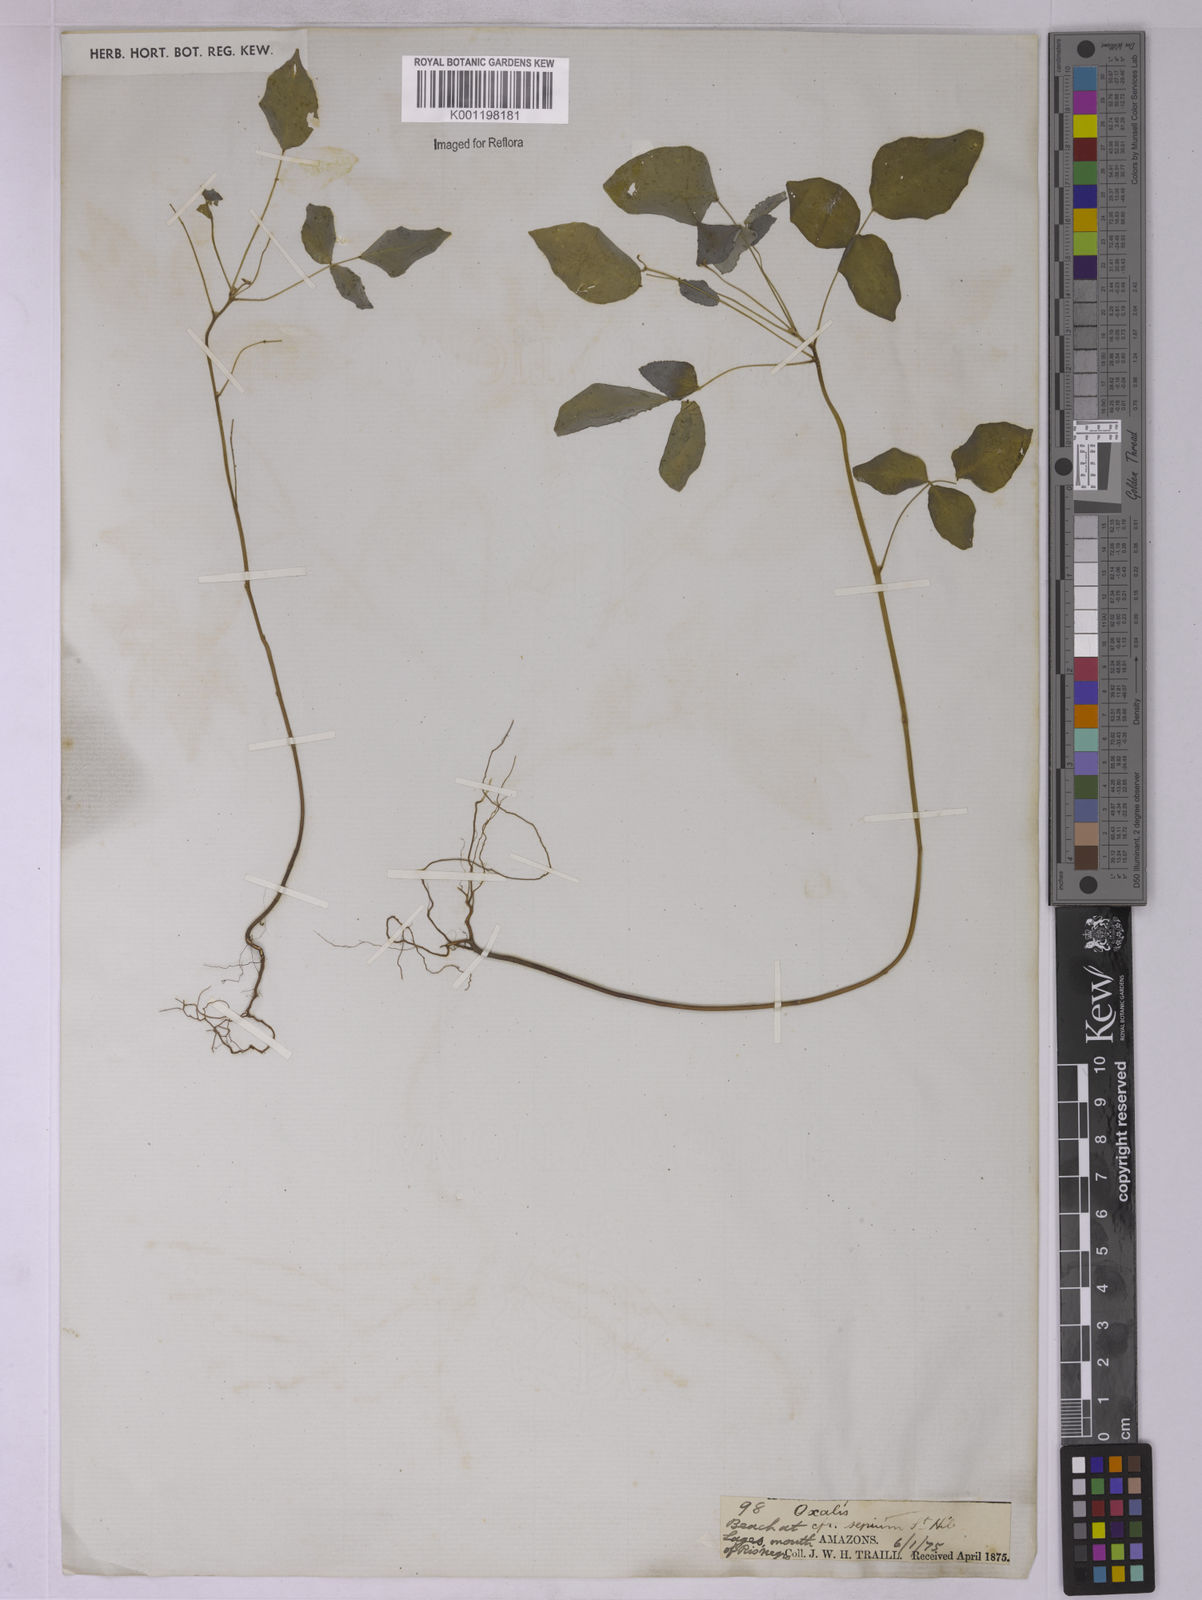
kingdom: Plantae
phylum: Tracheophyta
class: Magnoliopsida
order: Oxalidales
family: Oxalidaceae
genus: Oxalis
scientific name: Oxalis sepium
